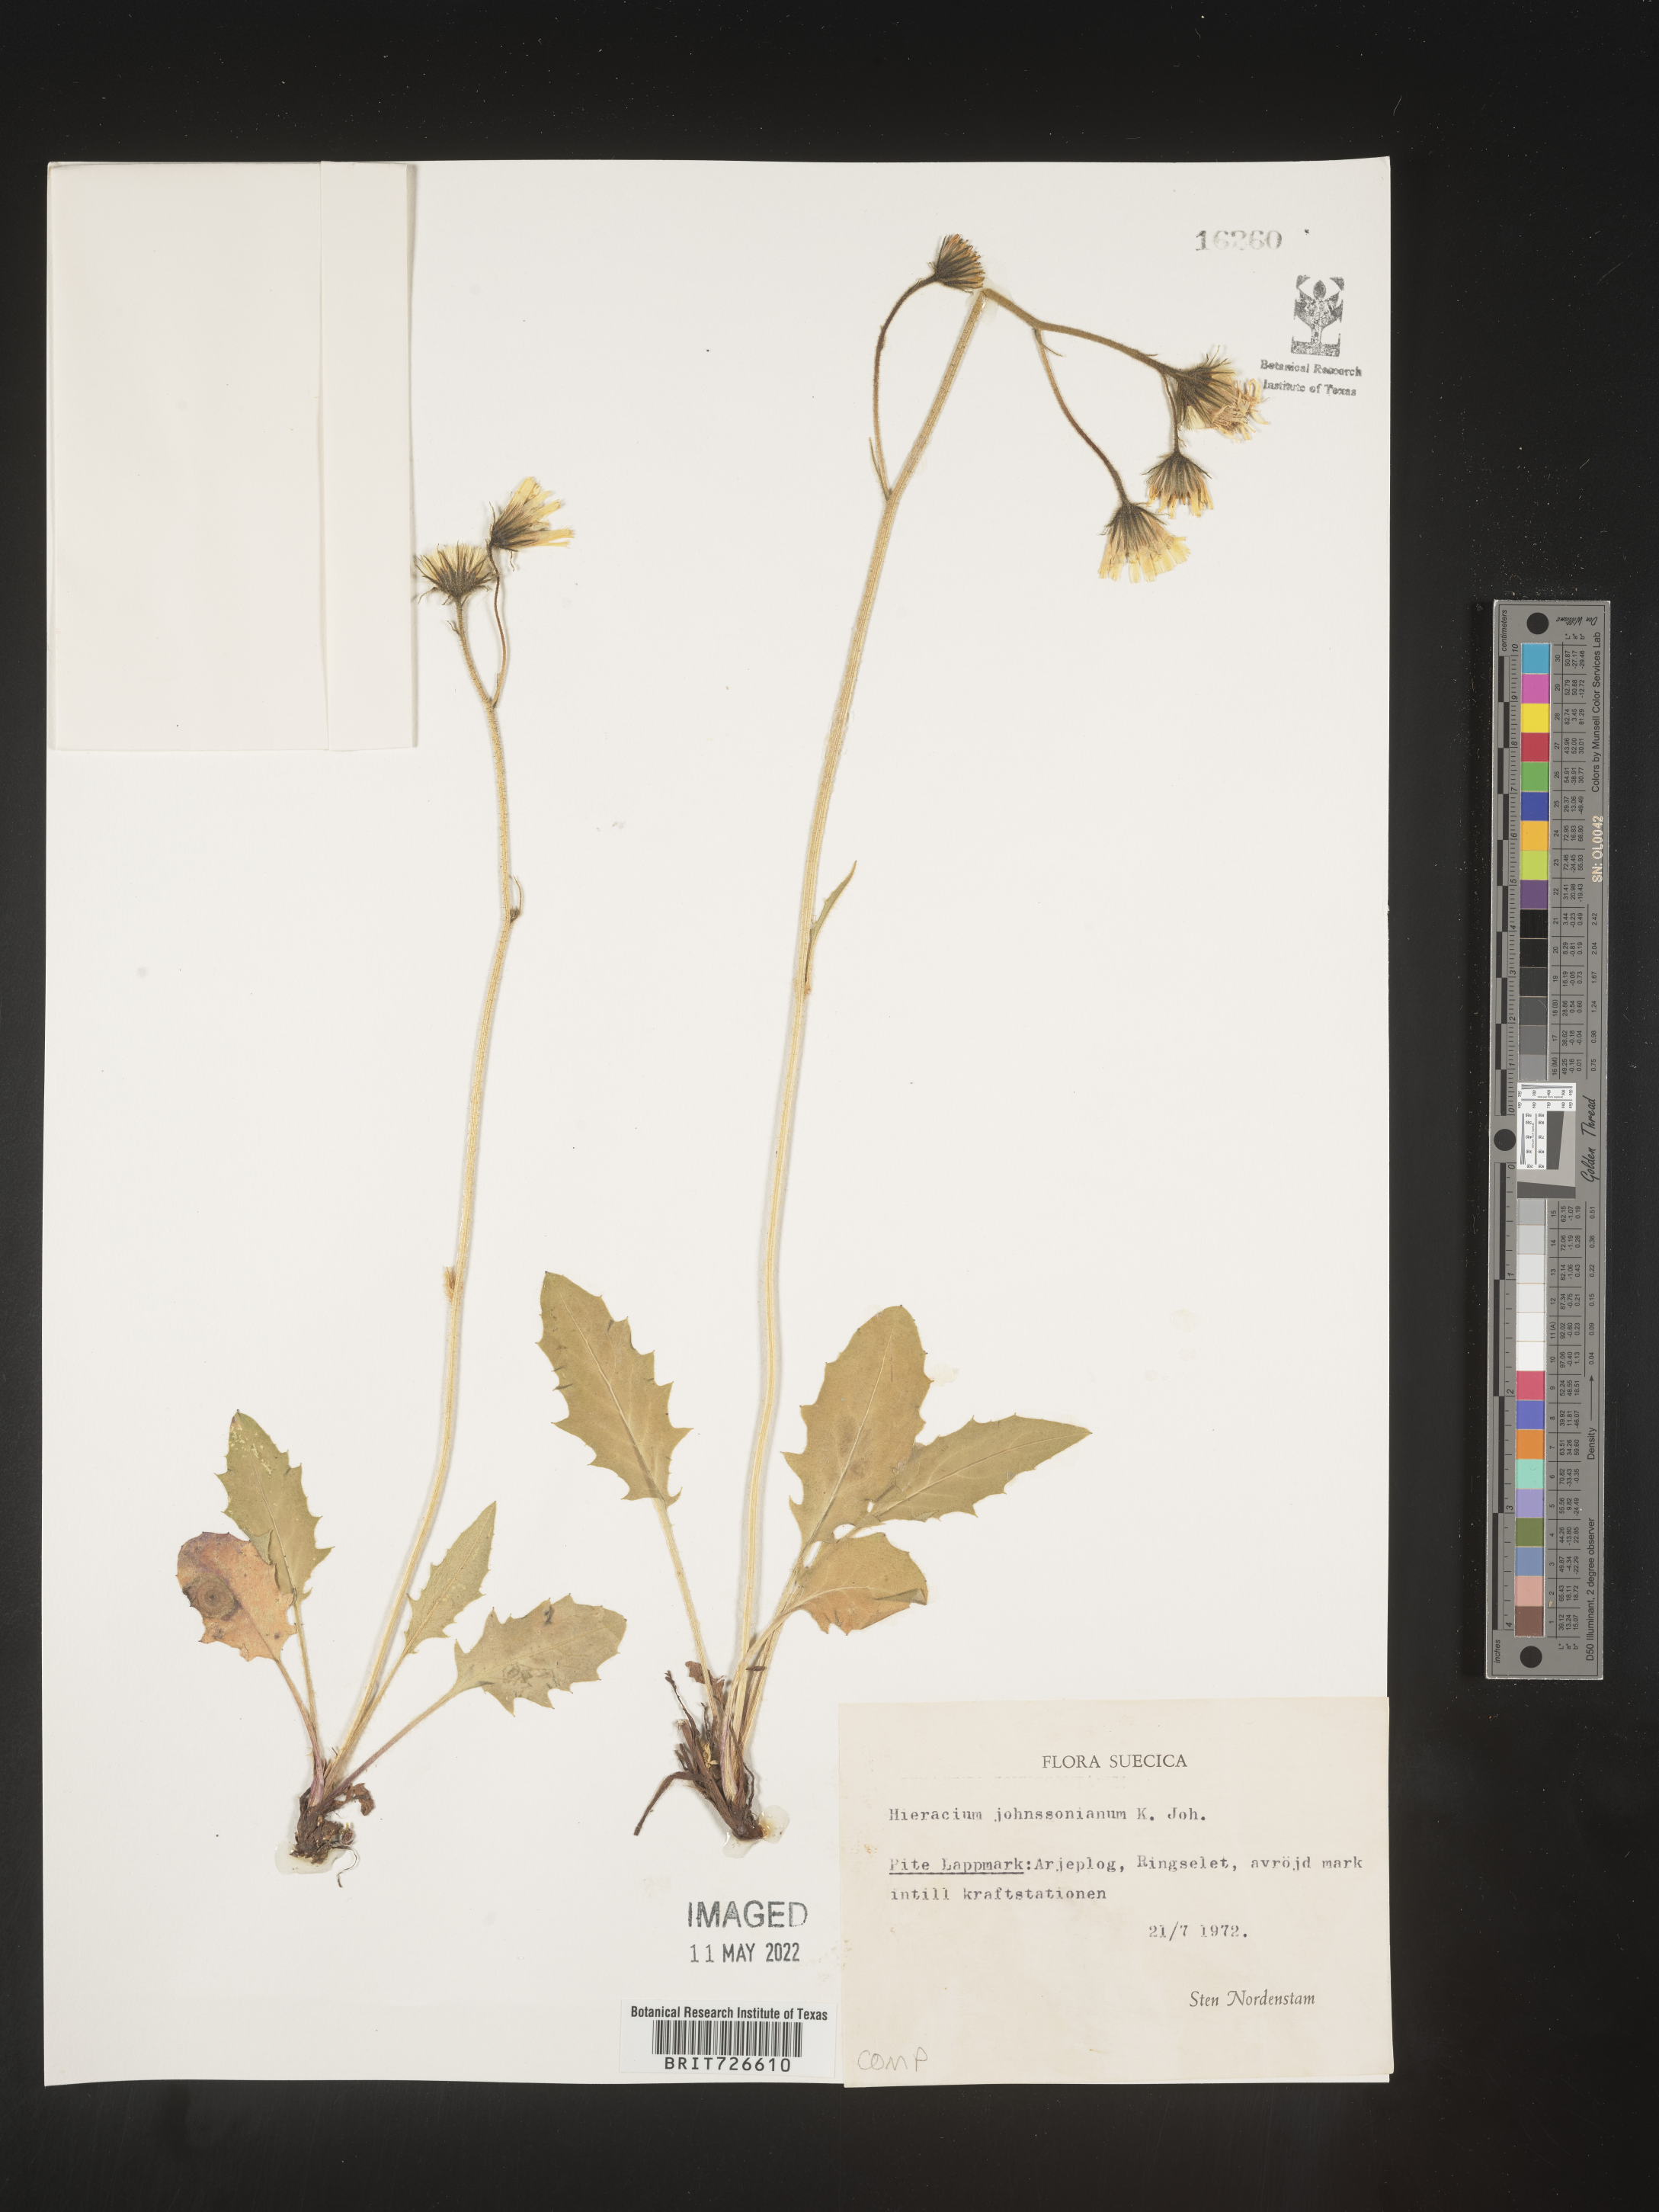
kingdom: Plantae
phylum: Tracheophyta
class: Magnoliopsida
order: Asterales
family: Asteraceae
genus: Hieracium
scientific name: Hieracium
